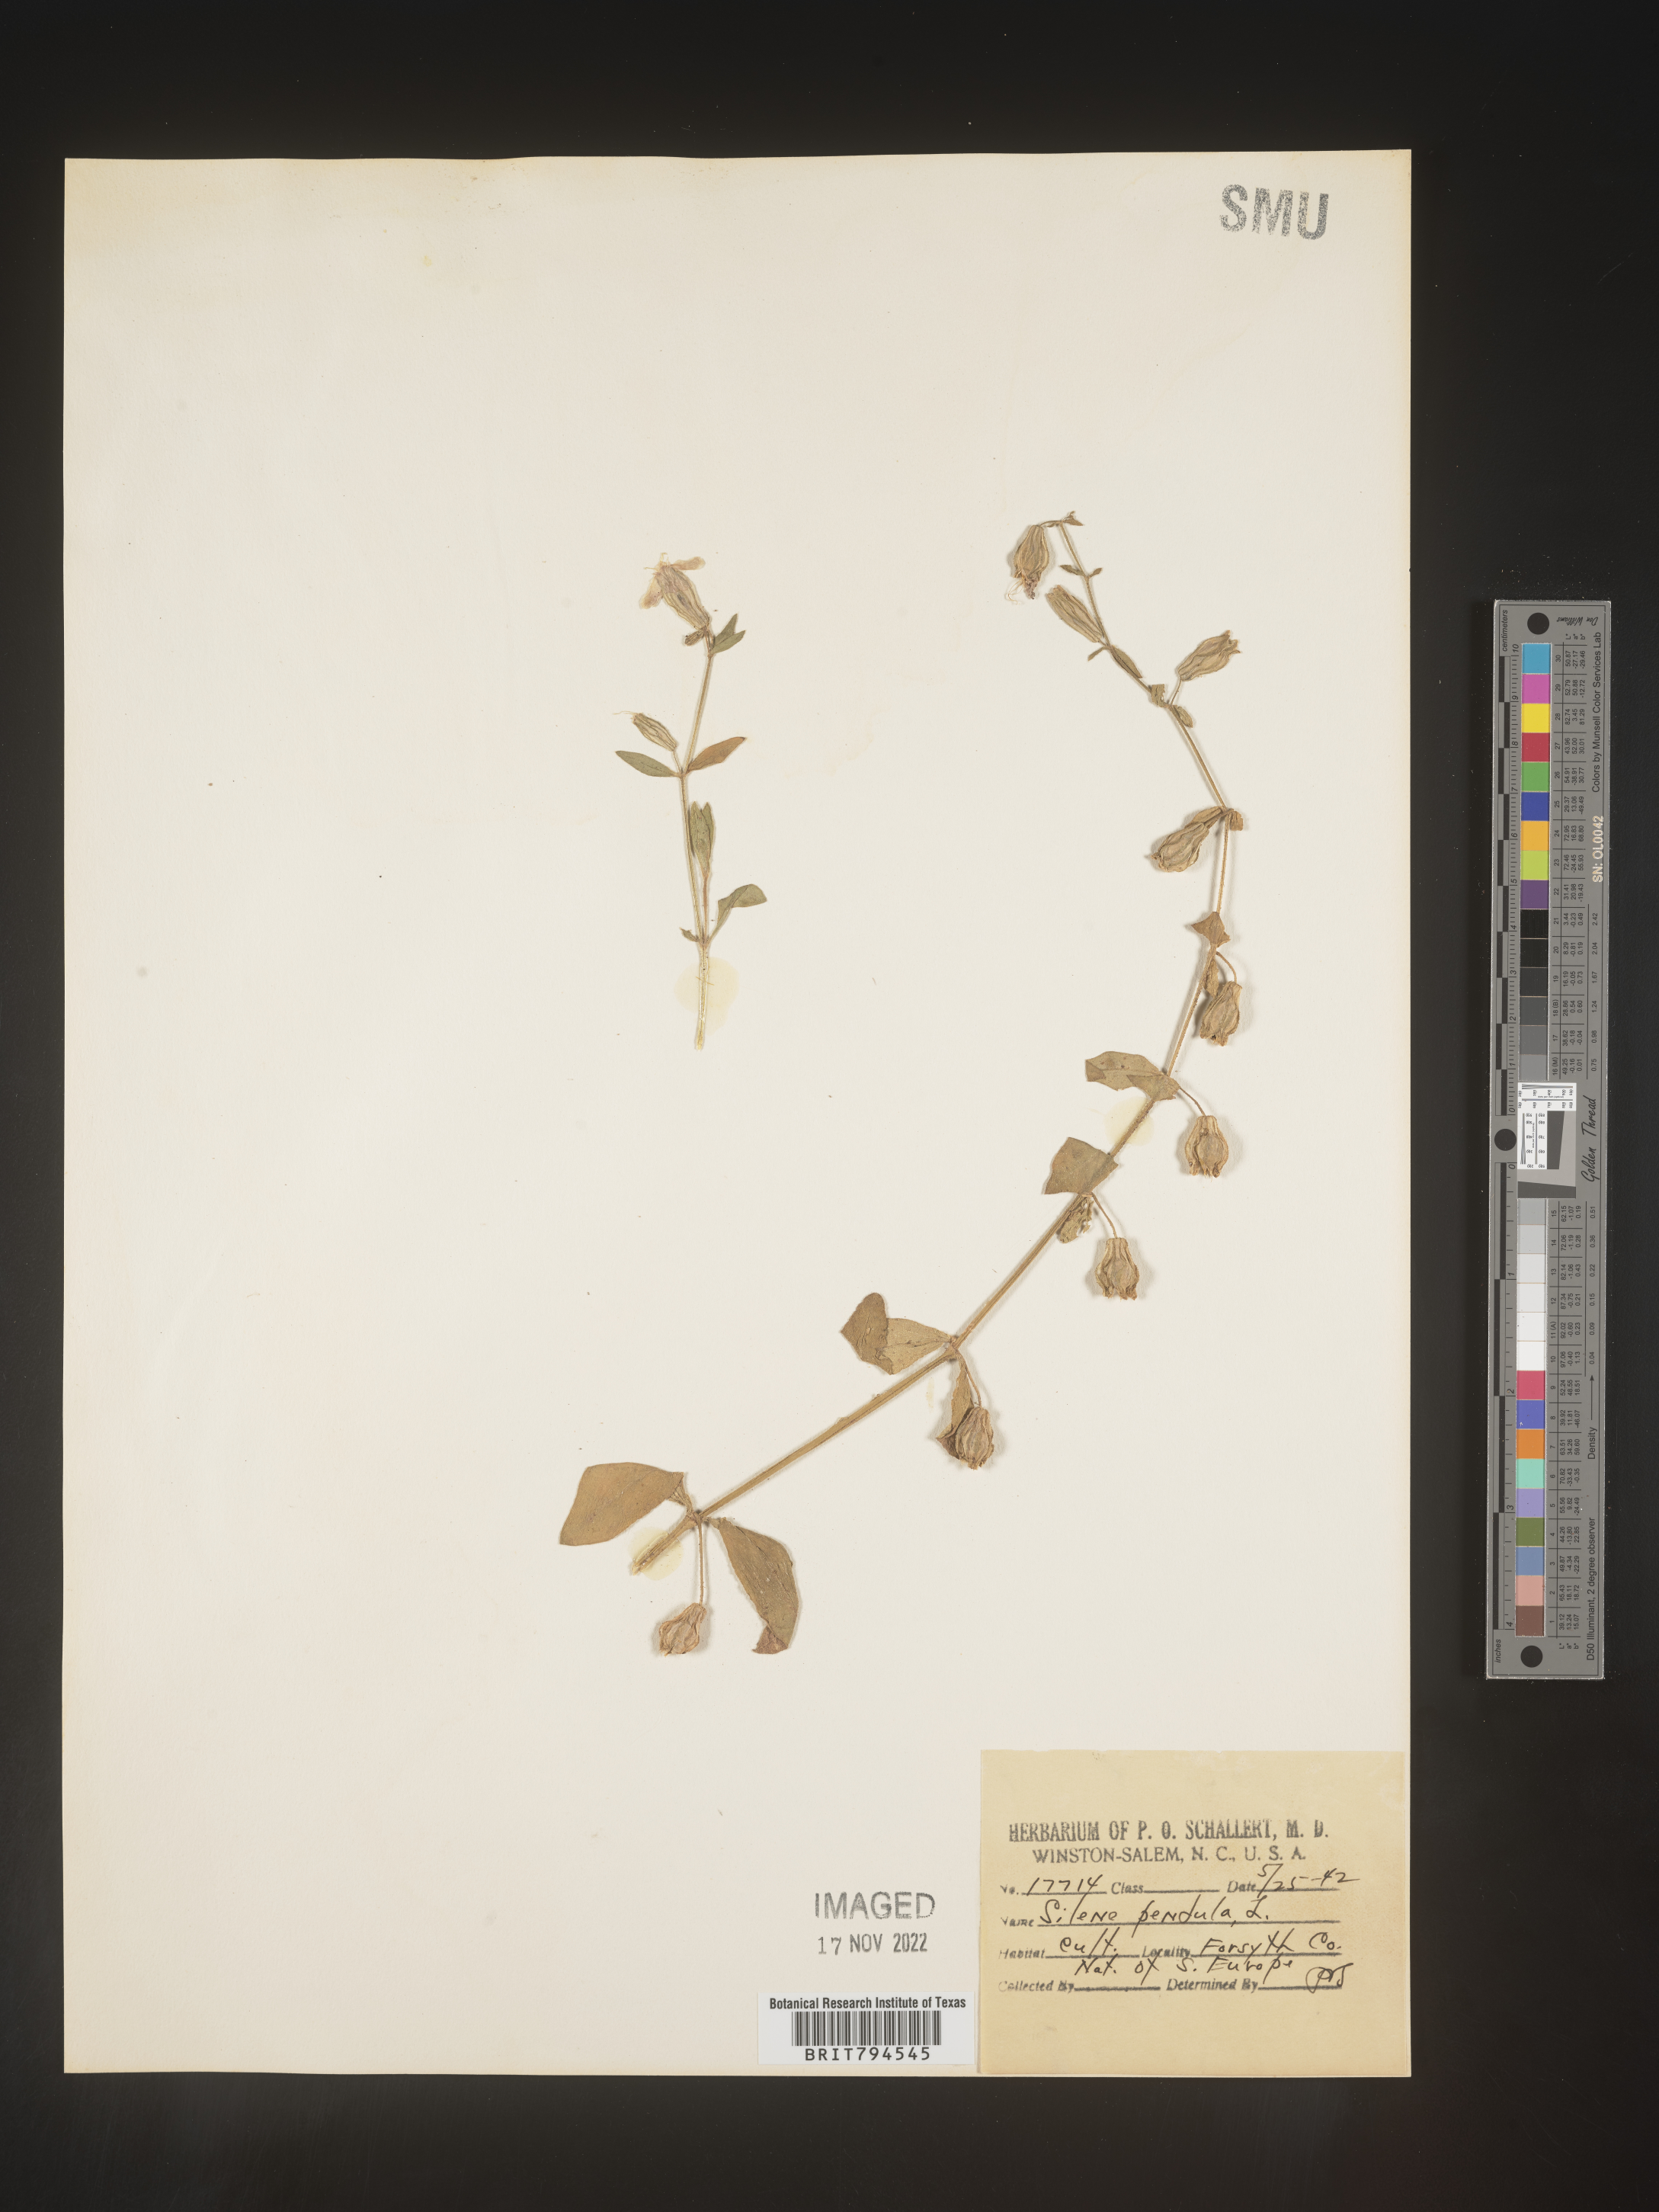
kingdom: Plantae
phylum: Tracheophyta
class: Magnoliopsida
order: Caryophyllales
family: Caryophyllaceae
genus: Silene
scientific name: Silene pendula
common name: Nodding catchfly
